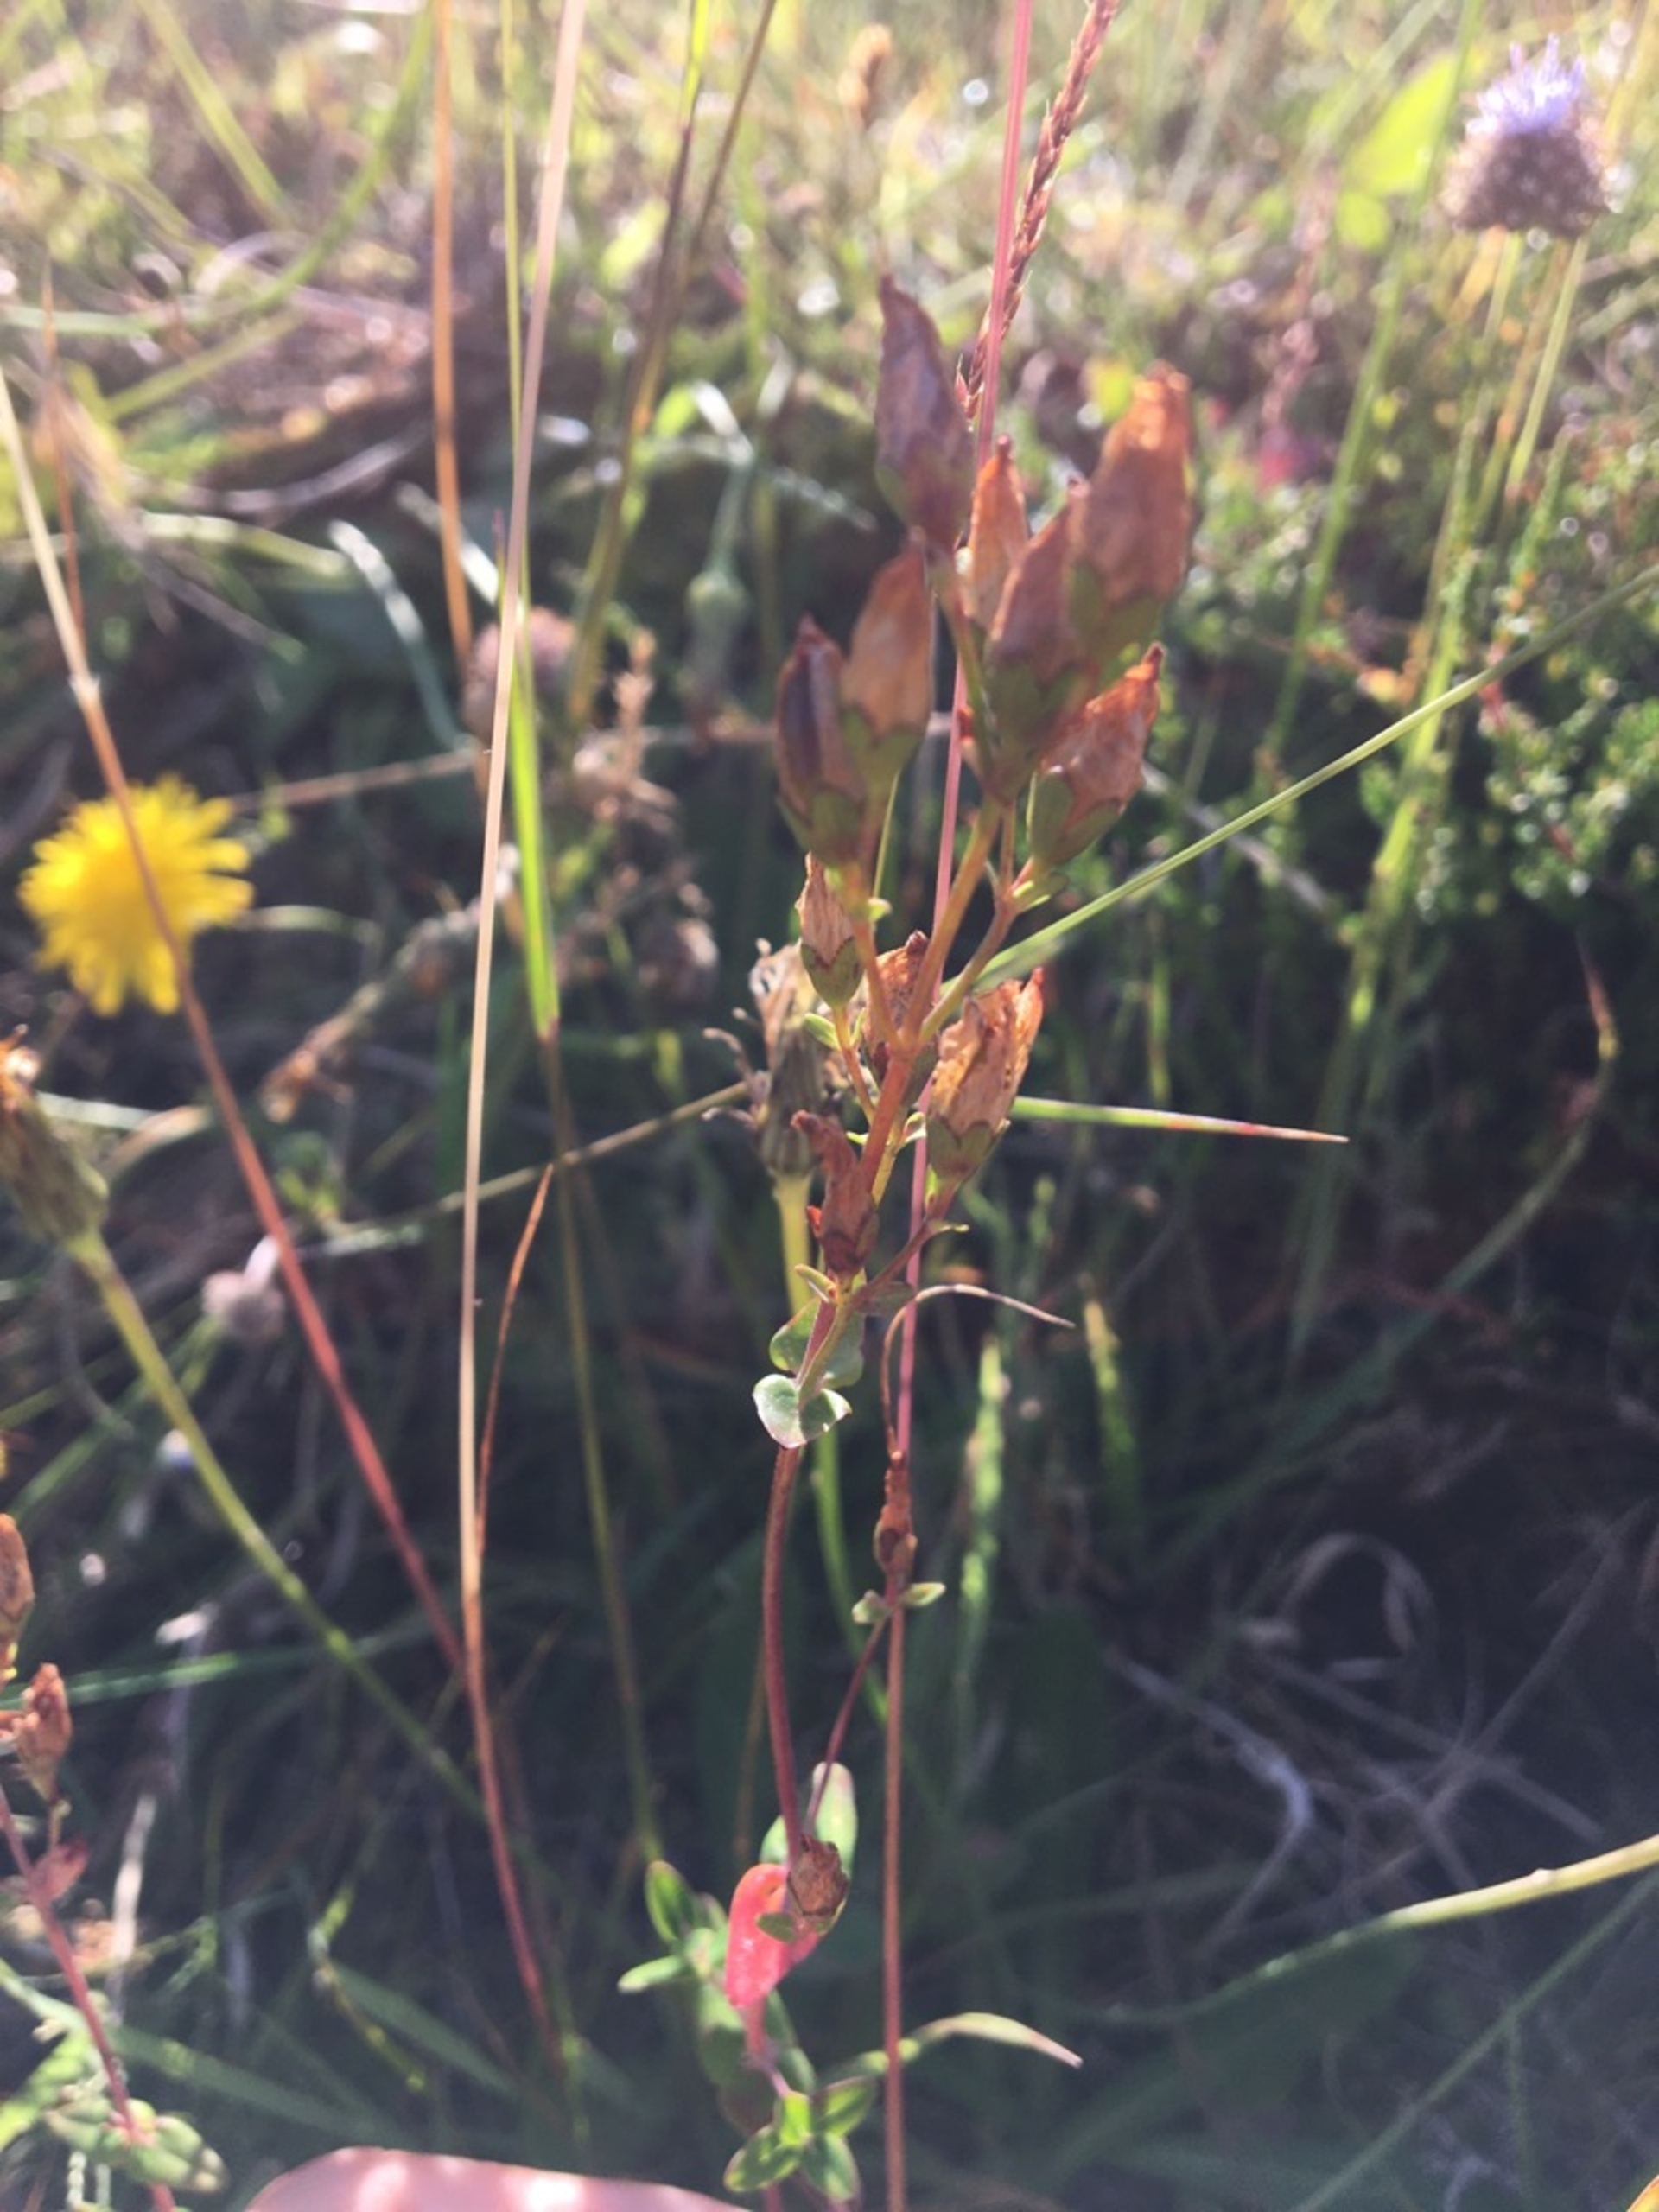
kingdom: Plantae
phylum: Tracheophyta
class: Magnoliopsida
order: Malpighiales
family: Hypericaceae
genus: Hypericum
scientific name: Hypericum pulchrum
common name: Smuk perikon
